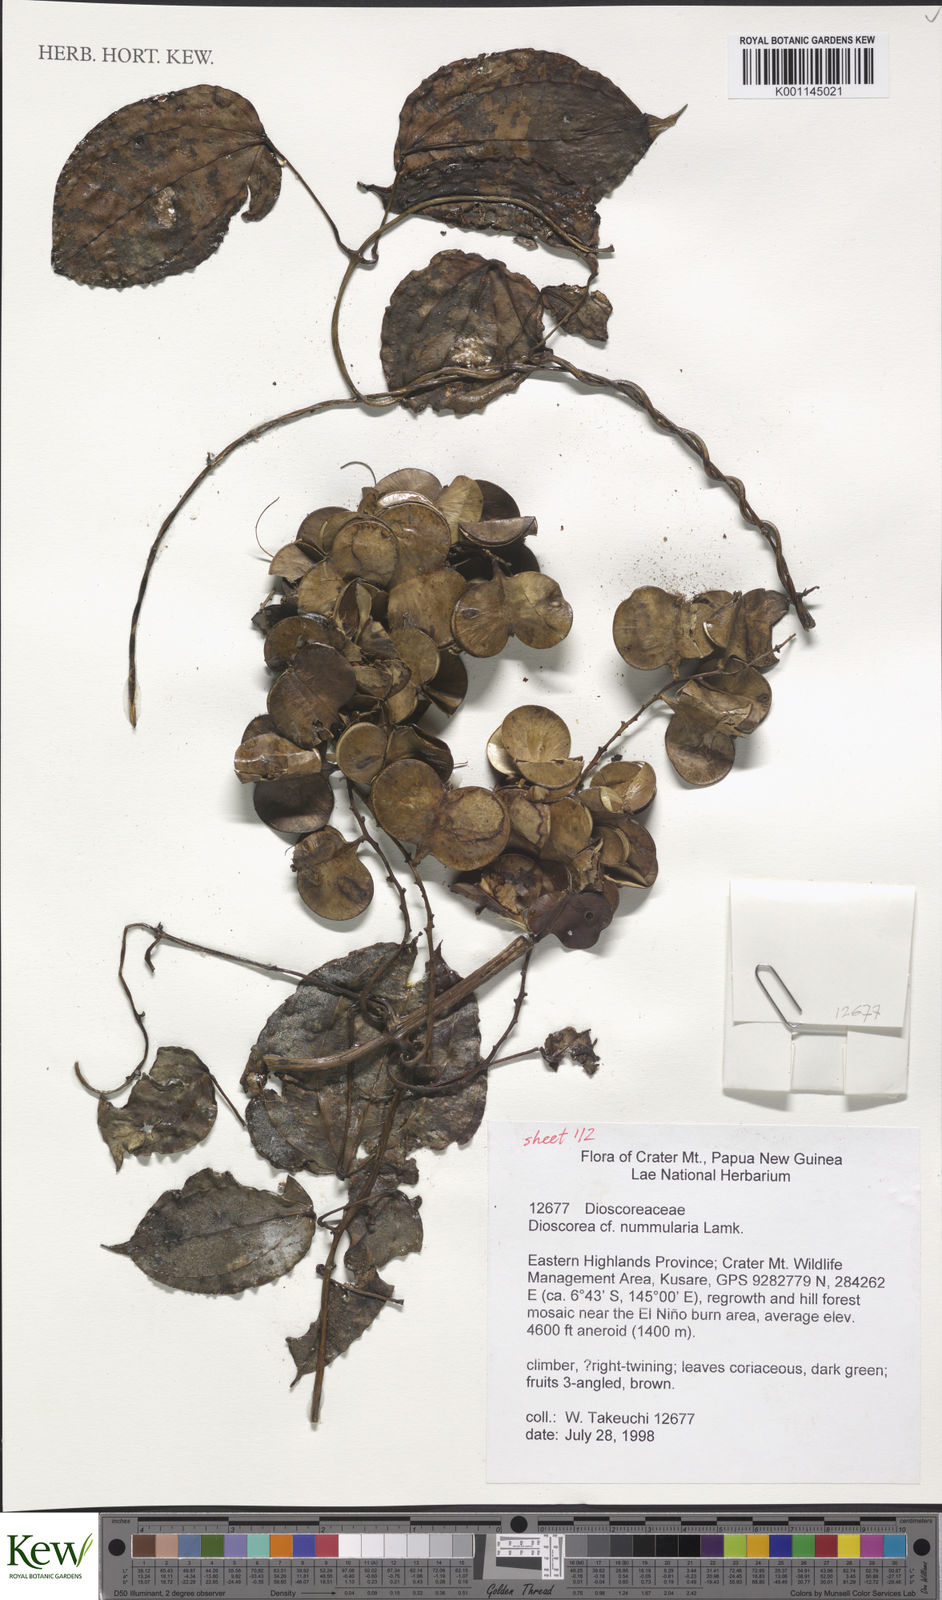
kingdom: Plantae
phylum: Tracheophyta
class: Liliopsida
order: Dioscoreales
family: Dioscoreaceae
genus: Dioscorea
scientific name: Dioscorea nummularia
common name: Pacific yam
